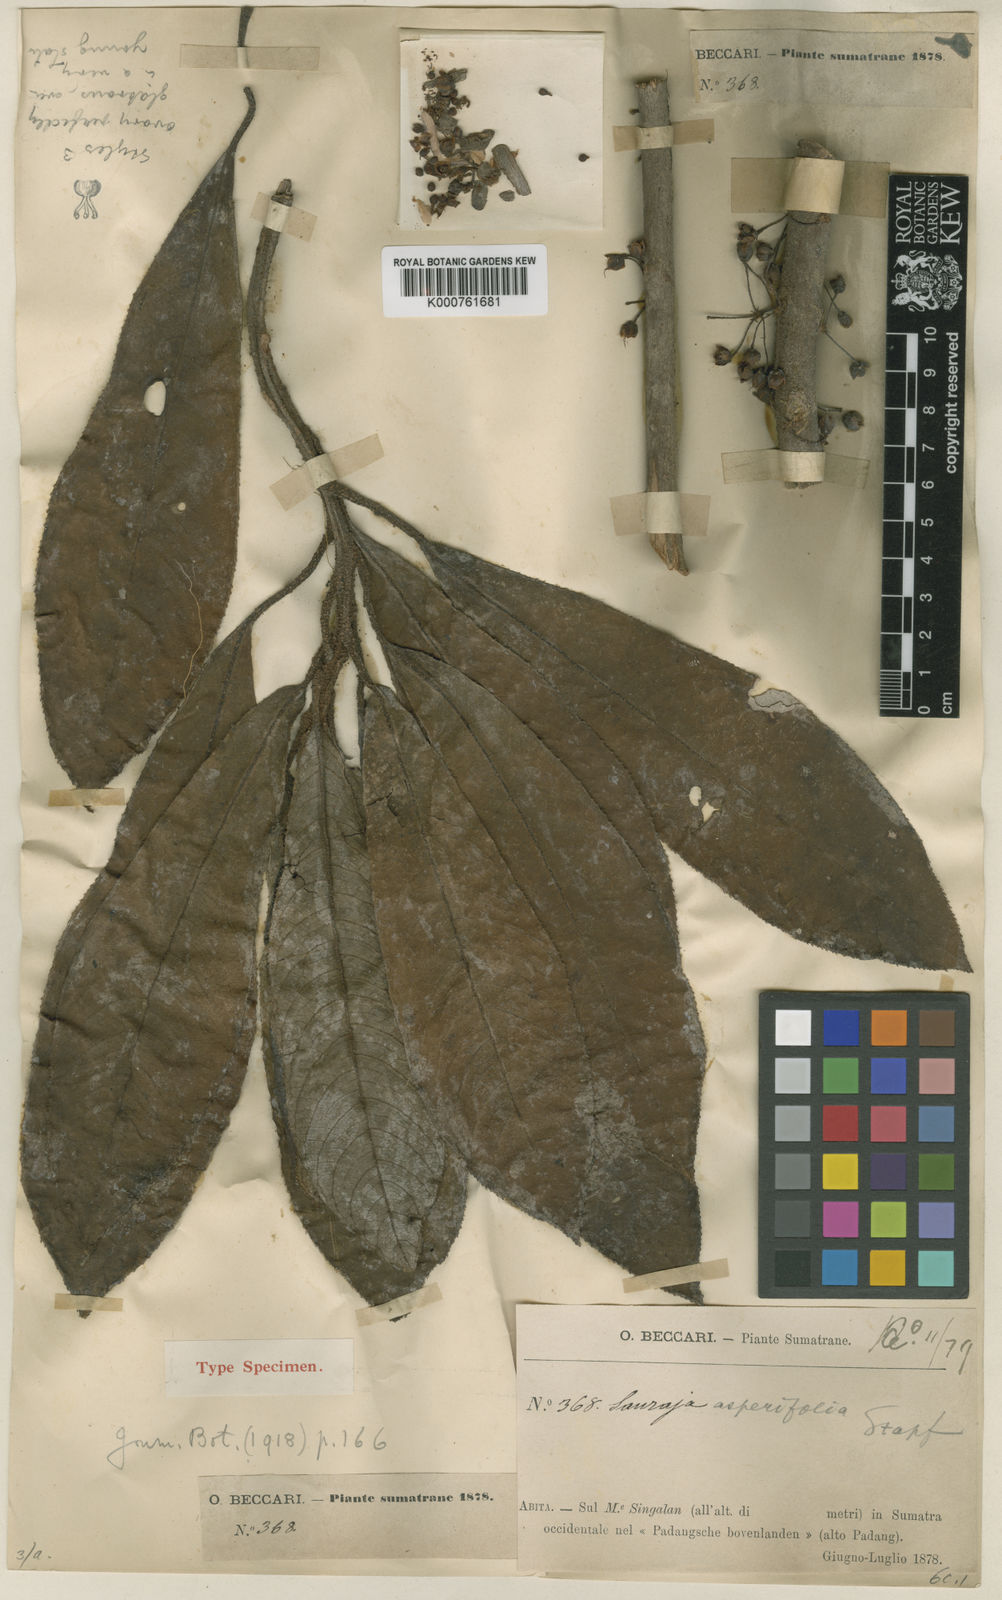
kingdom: Plantae
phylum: Tracheophyta
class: Magnoliopsida
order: Ericales
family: Actinidiaceae
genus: Saurauia
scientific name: Saurauia asperifolia
